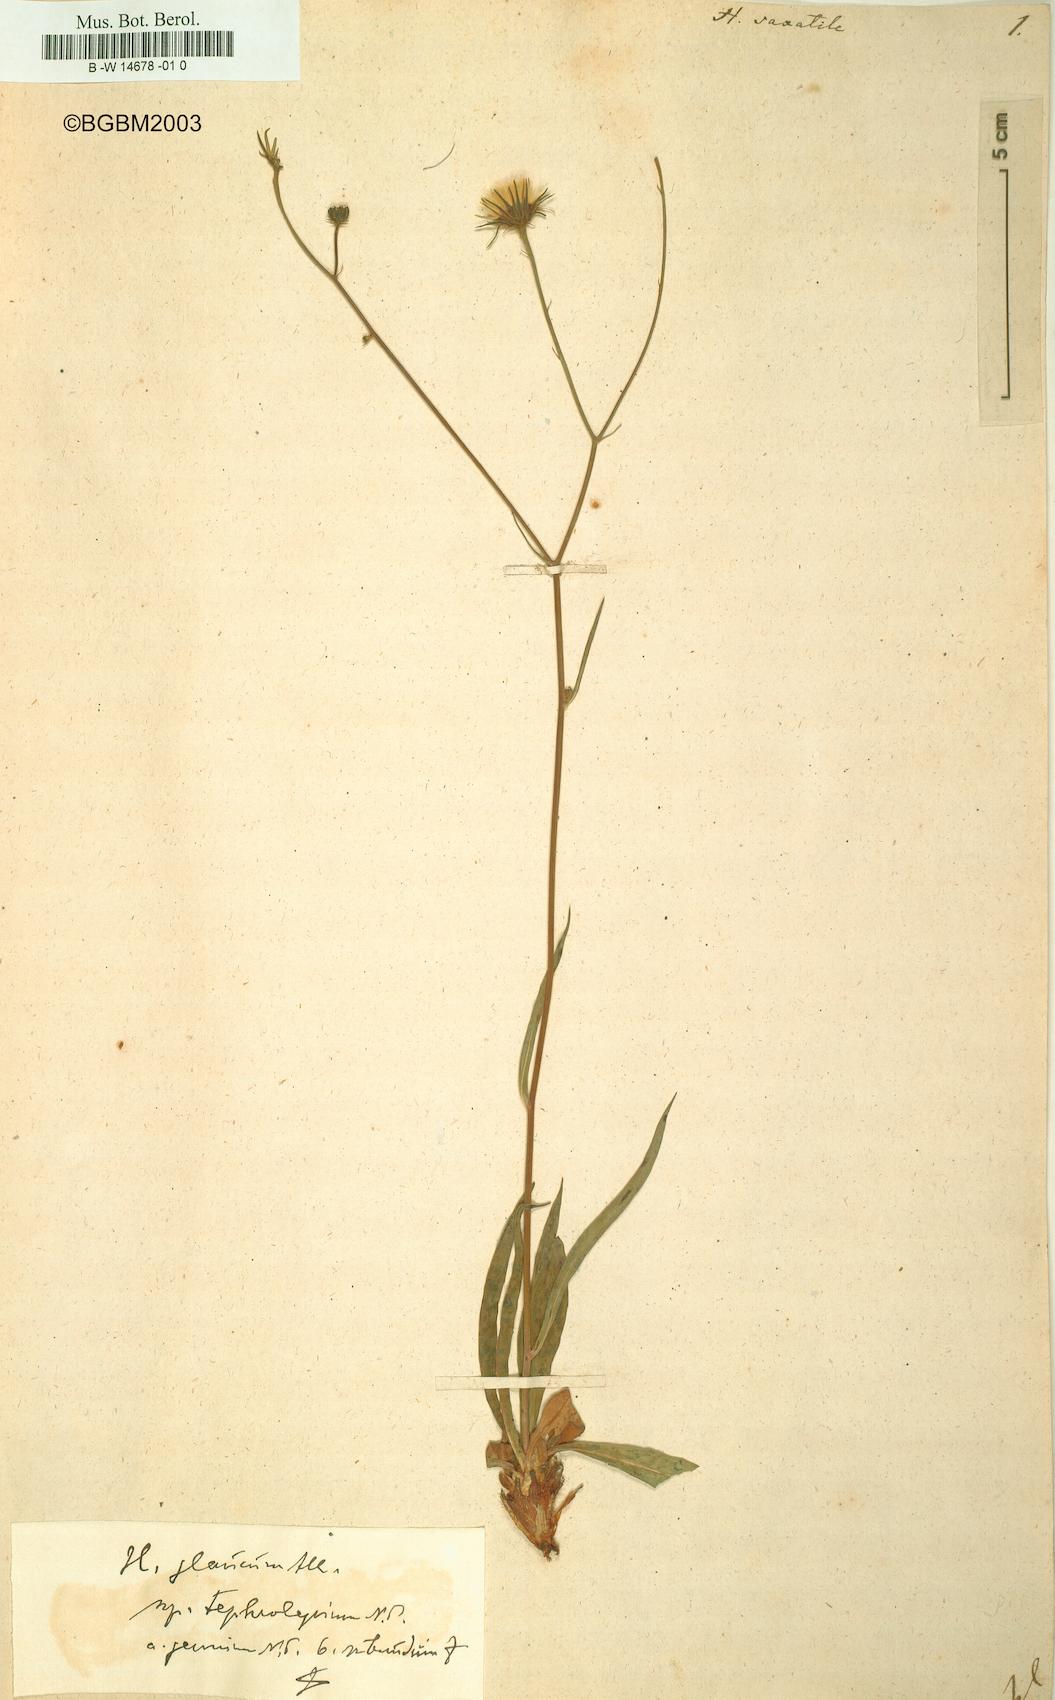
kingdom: Plantae
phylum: Tracheophyta
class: Magnoliopsida
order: Asterales
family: Asteraceae
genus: Hieracium
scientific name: Hieracium saxatile
